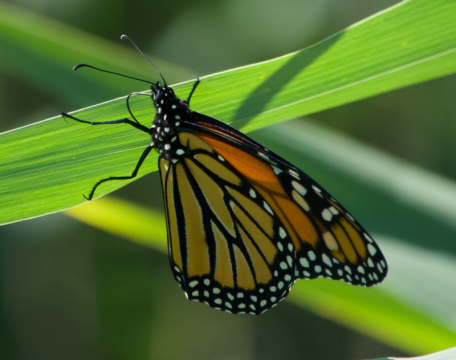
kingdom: Animalia
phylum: Arthropoda
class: Insecta
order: Lepidoptera
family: Nymphalidae
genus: Danaus
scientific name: Danaus plexippus
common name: Monarch
